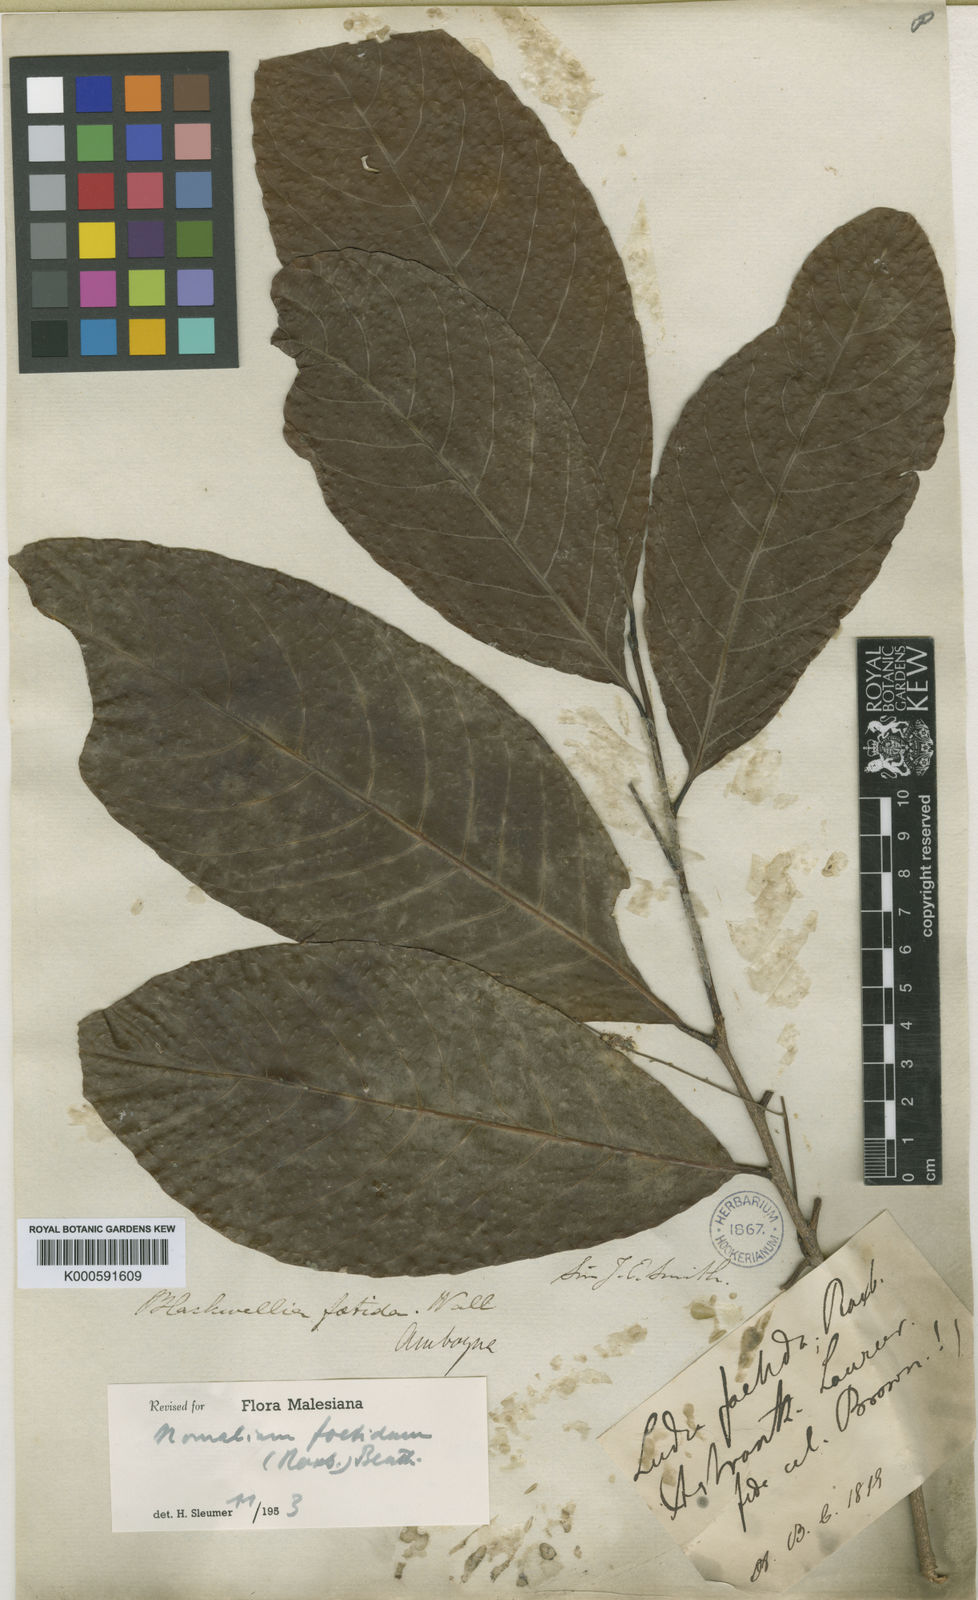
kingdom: Plantae
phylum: Tracheophyta
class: Magnoliopsida
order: Malpighiales
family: Salicaceae
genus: Homalium
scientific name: Homalium foetidum
